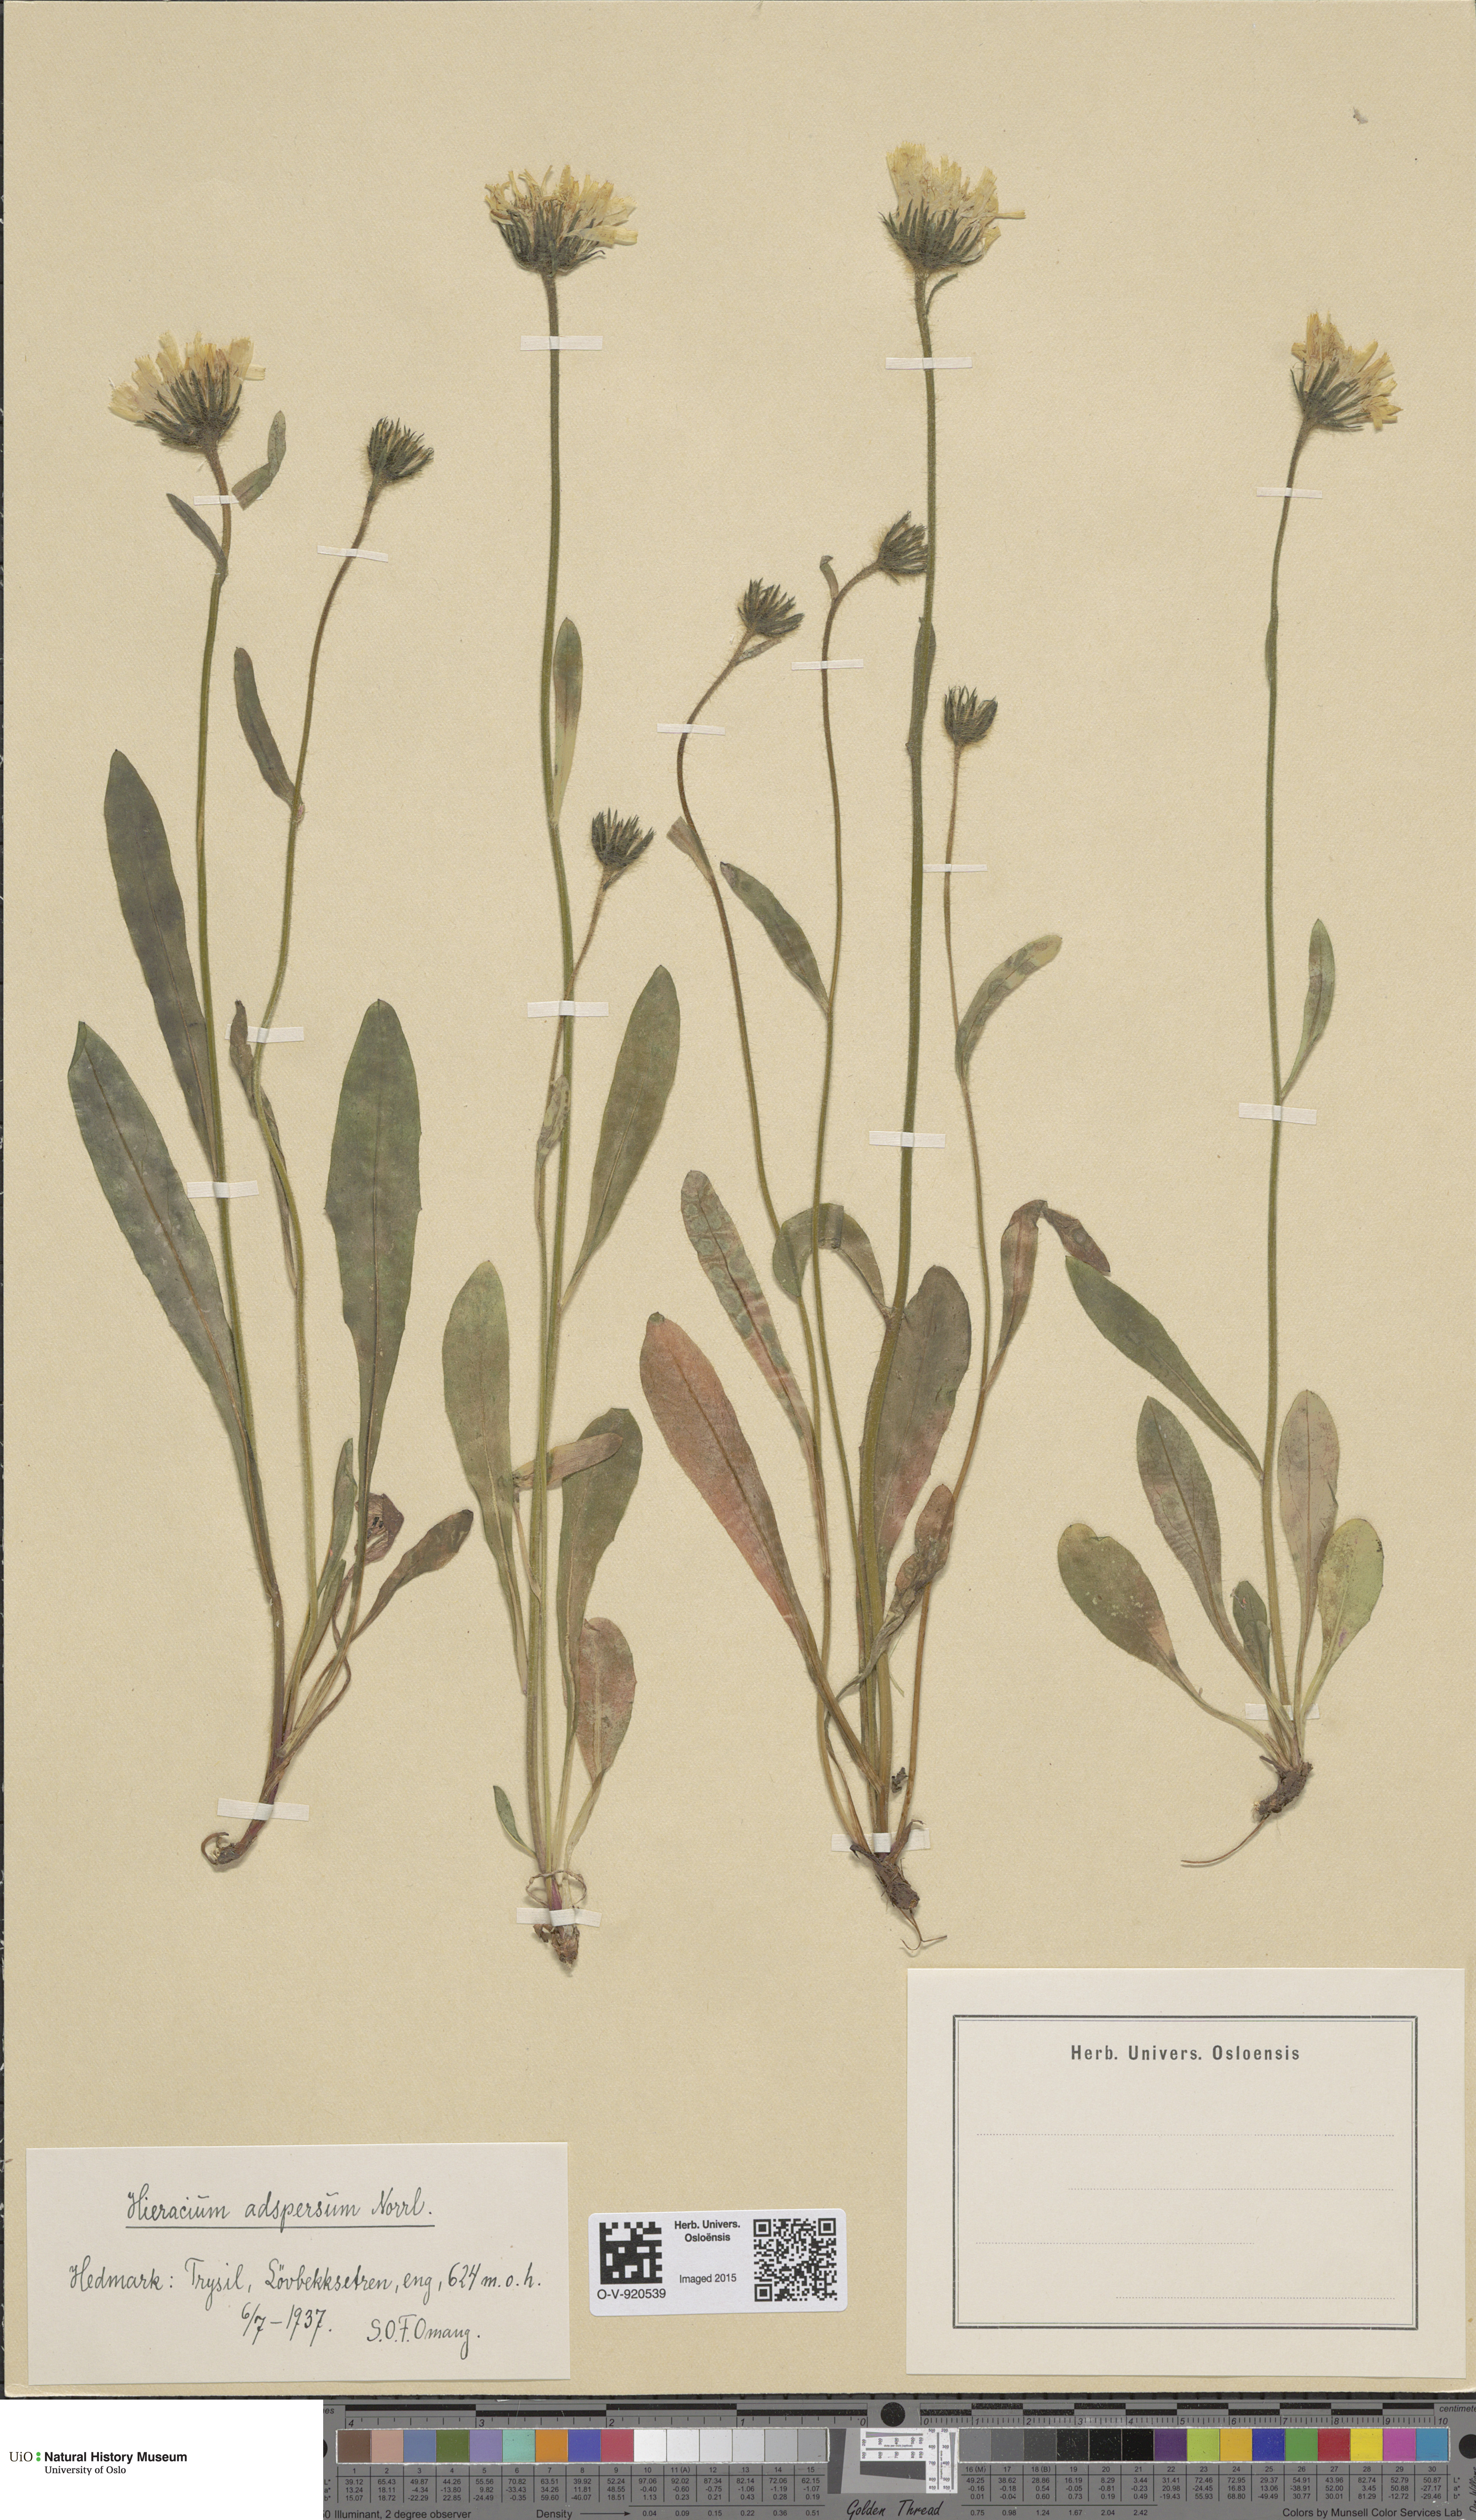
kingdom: Plantae
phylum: Tracheophyta
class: Magnoliopsida
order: Asterales
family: Asteraceae
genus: Hieracium
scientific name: Hieracium alpinum
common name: Alpine hawkweed
